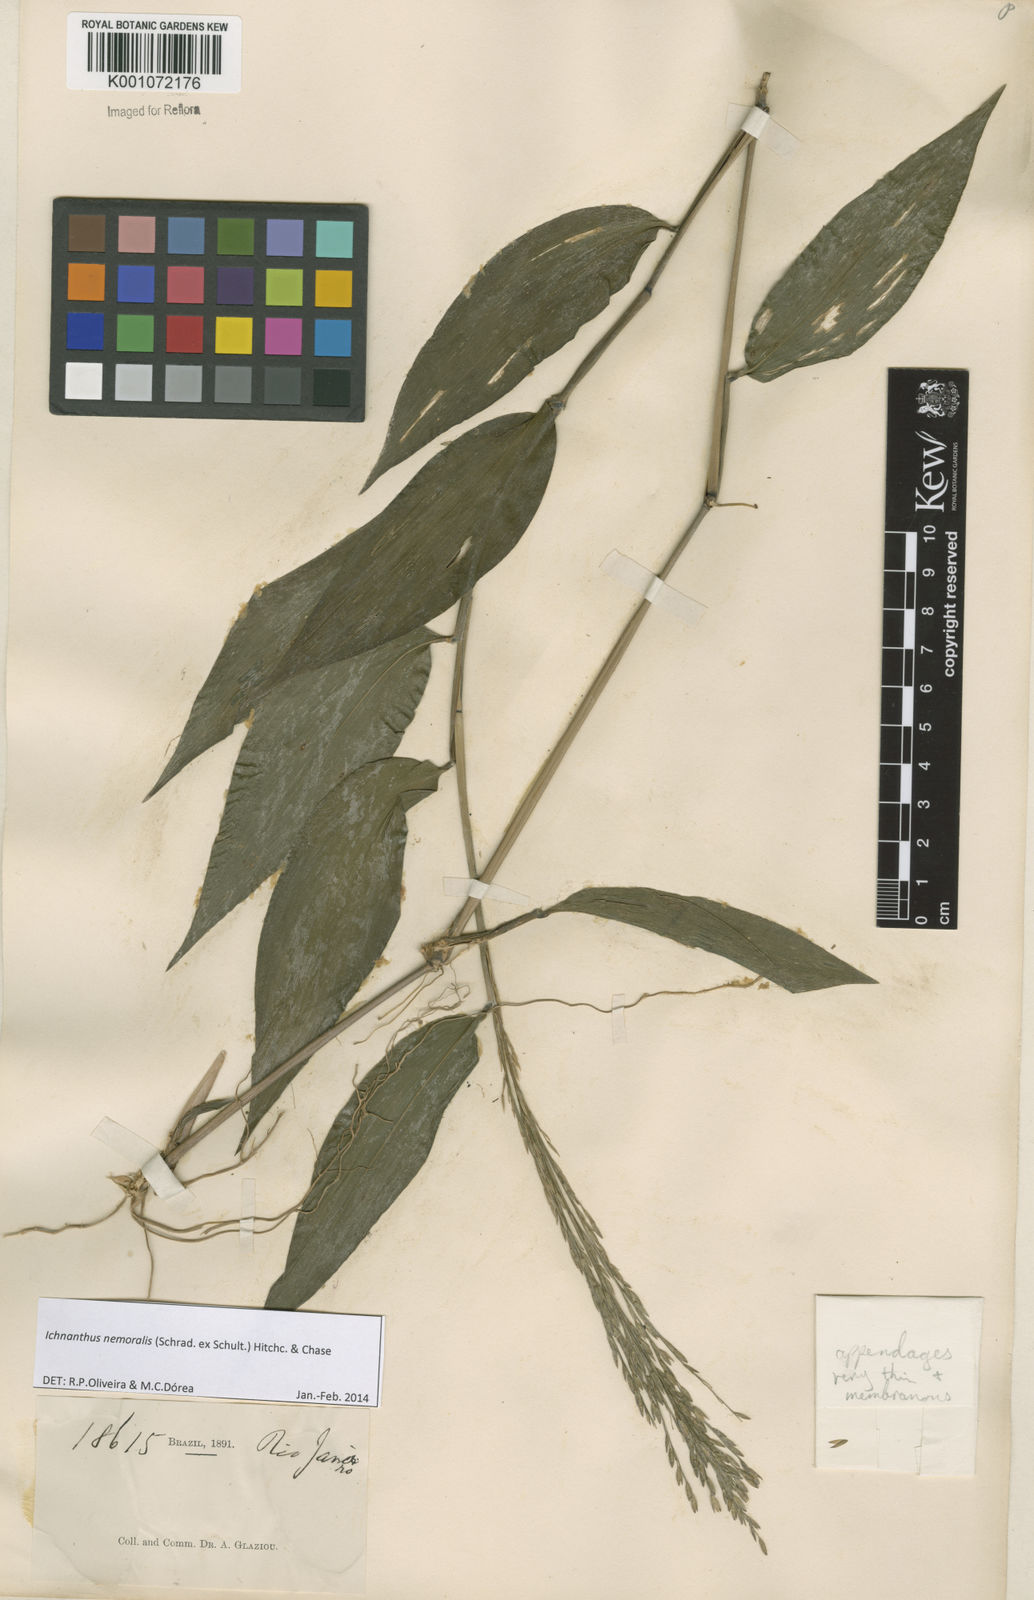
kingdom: Plantae
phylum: Tracheophyta
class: Liliopsida
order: Poales
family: Poaceae
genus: Ichnanthus
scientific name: Ichnanthus nemoralis
